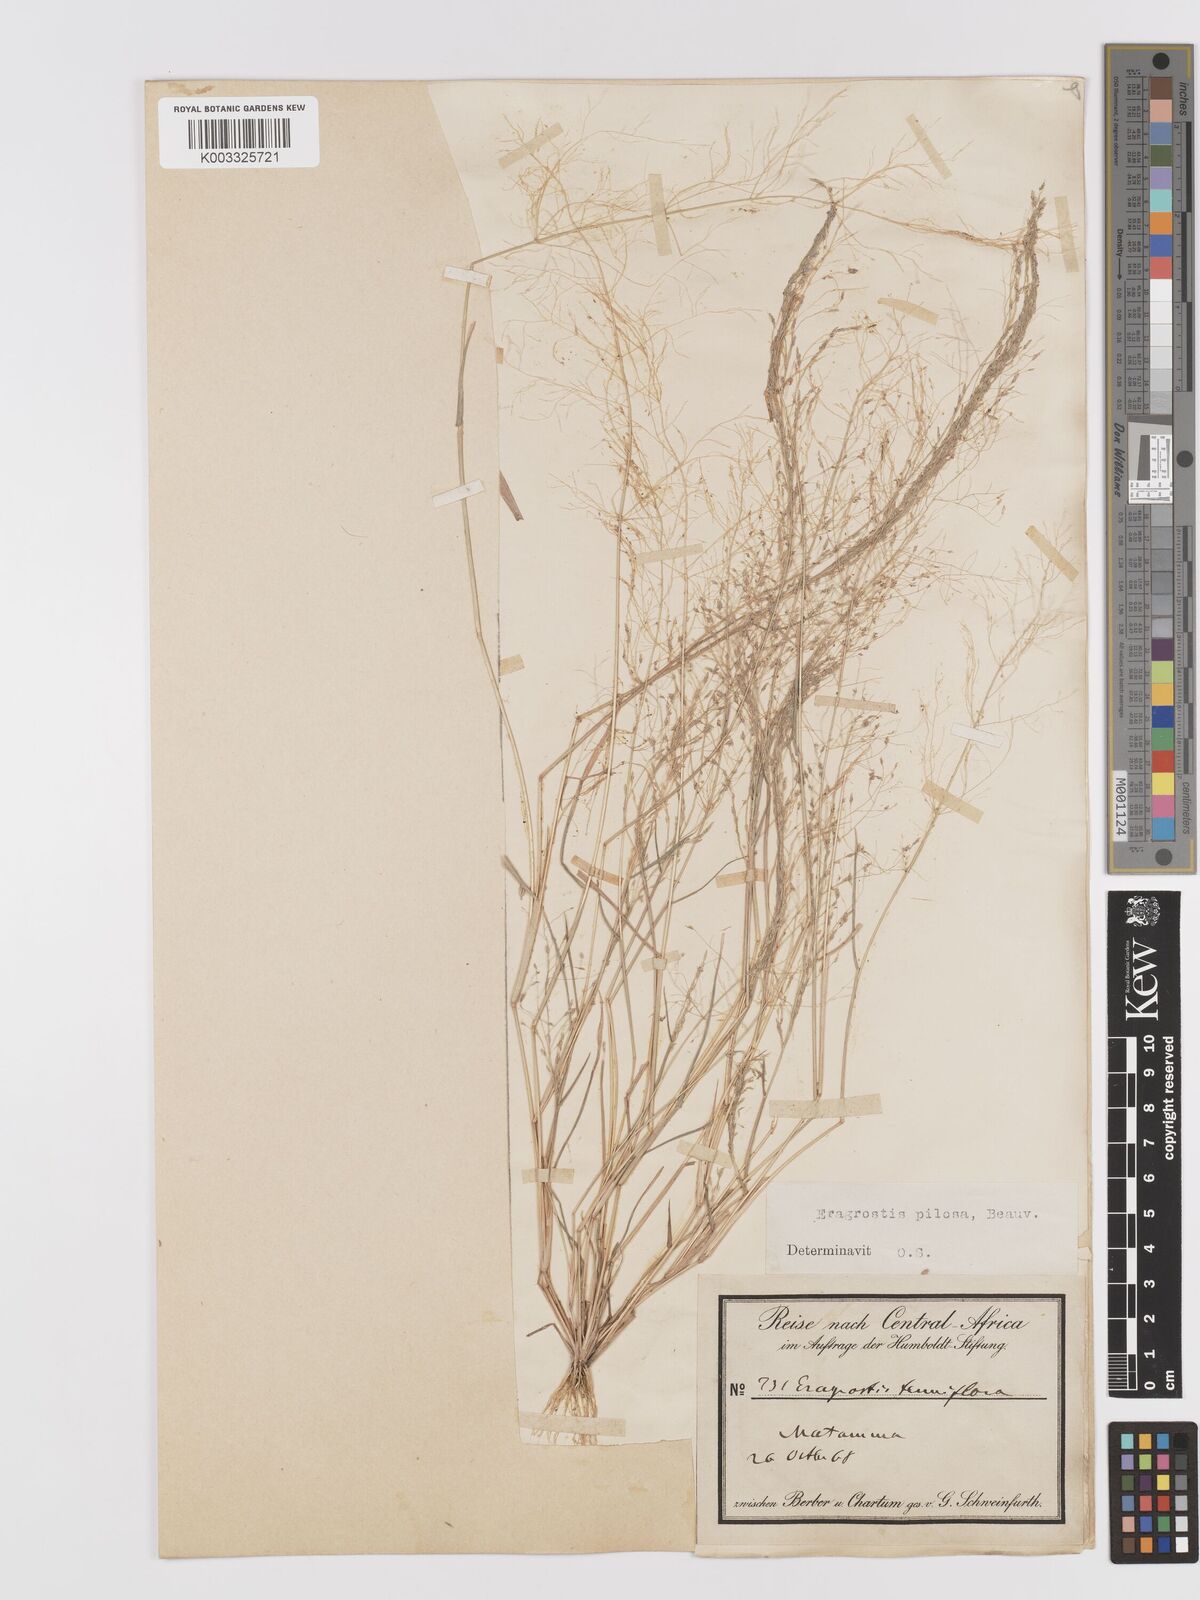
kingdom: Plantae
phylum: Tracheophyta
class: Liliopsida
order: Poales
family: Poaceae
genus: Eragrostis
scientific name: Eragrostis pilosa
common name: Indian lovegrass
